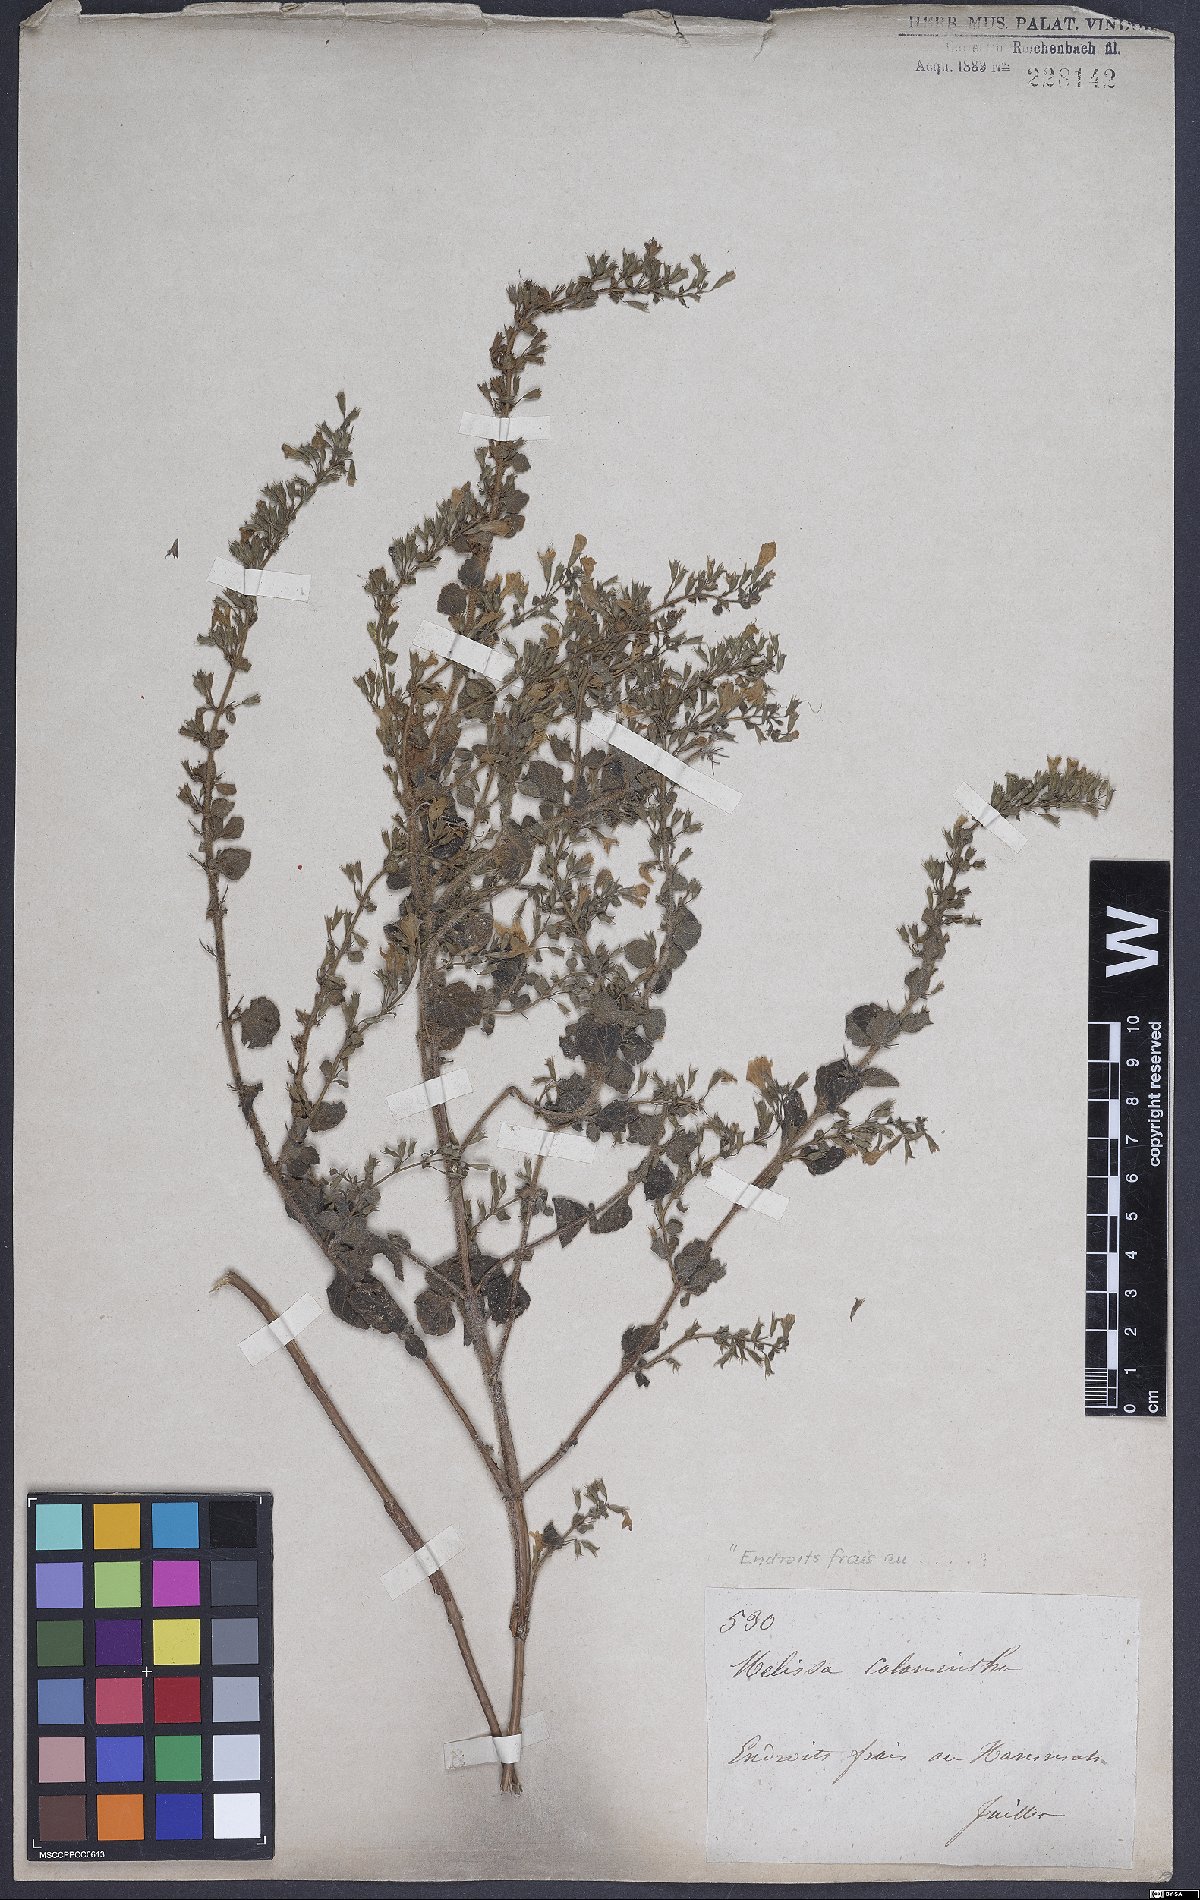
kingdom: Plantae
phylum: Tracheophyta
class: Magnoliopsida
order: Lamiales
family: Lamiaceae
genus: Clinopodium
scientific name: Clinopodium menthifolium
